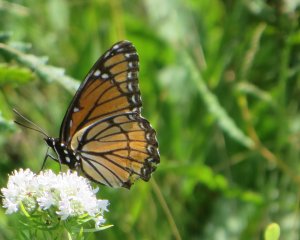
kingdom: Animalia
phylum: Arthropoda
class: Insecta
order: Lepidoptera
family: Nymphalidae
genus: Limenitis
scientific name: Limenitis archippus
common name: Viceroy
